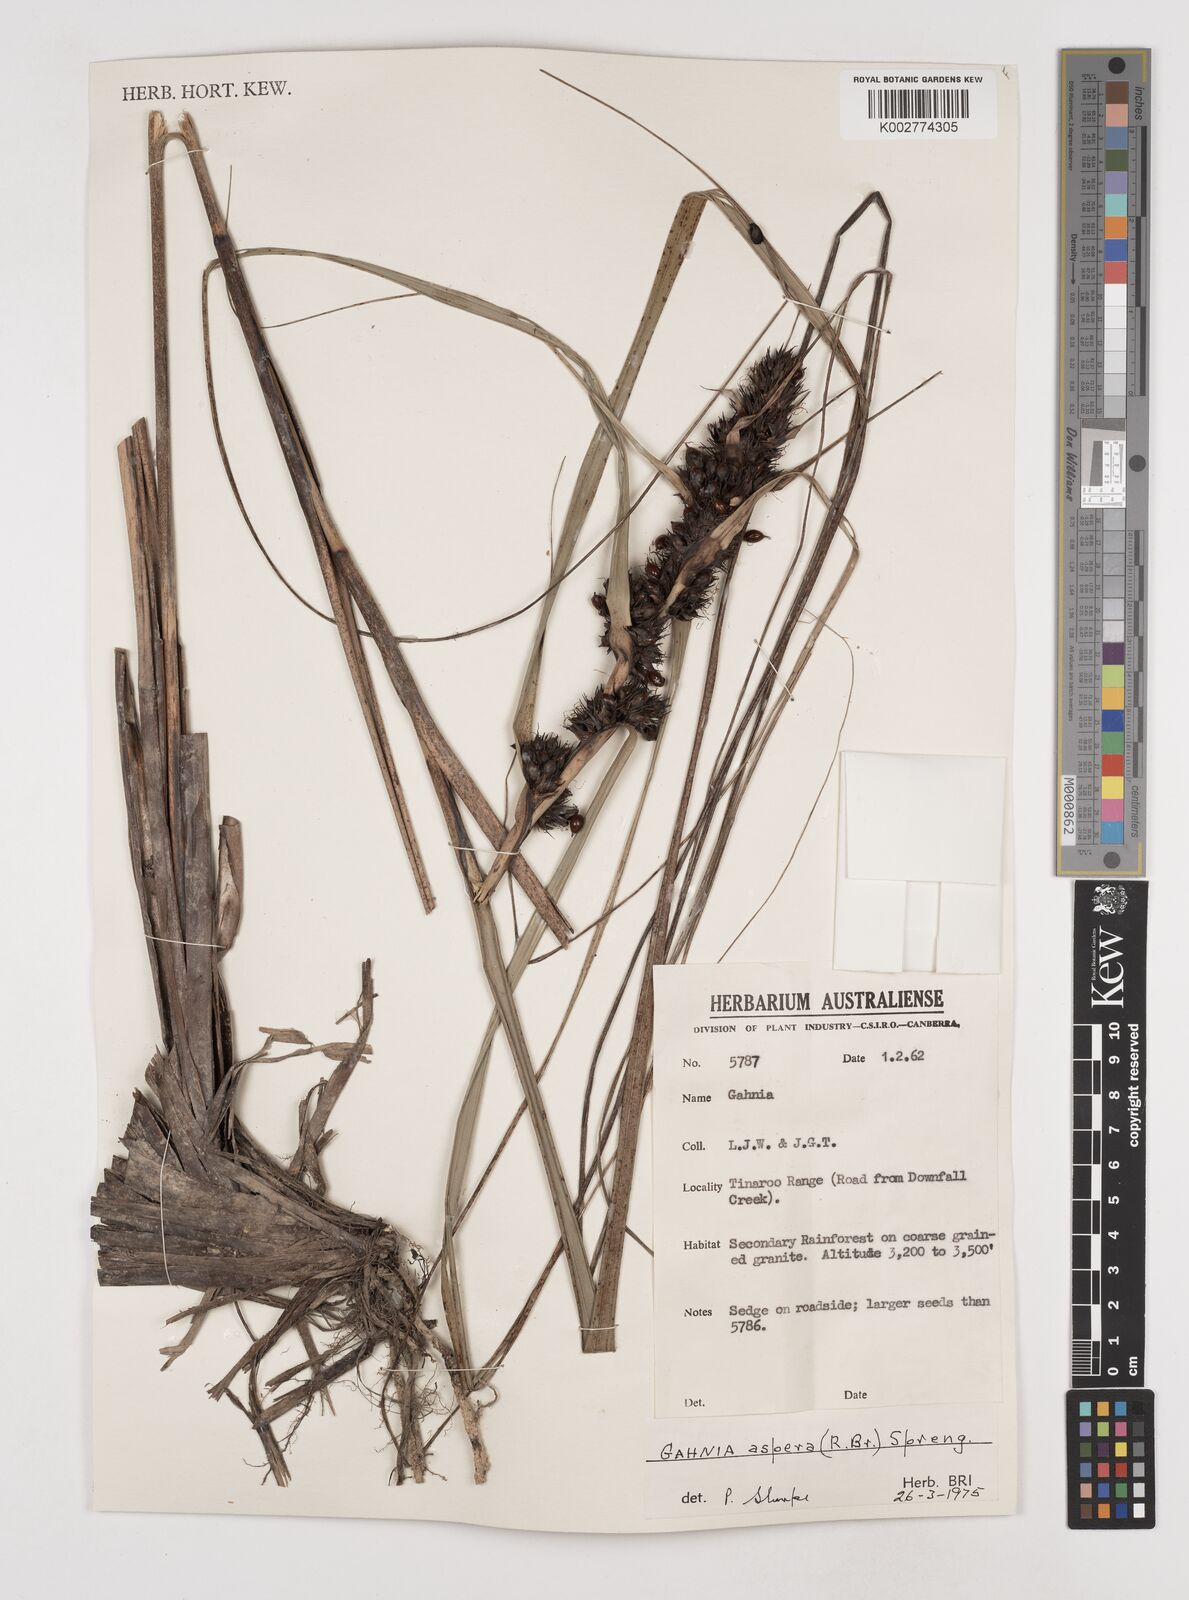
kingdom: Plantae
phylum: Tracheophyta
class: Liliopsida
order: Poales
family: Cyperaceae
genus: Gahnia
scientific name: Gahnia aspera
